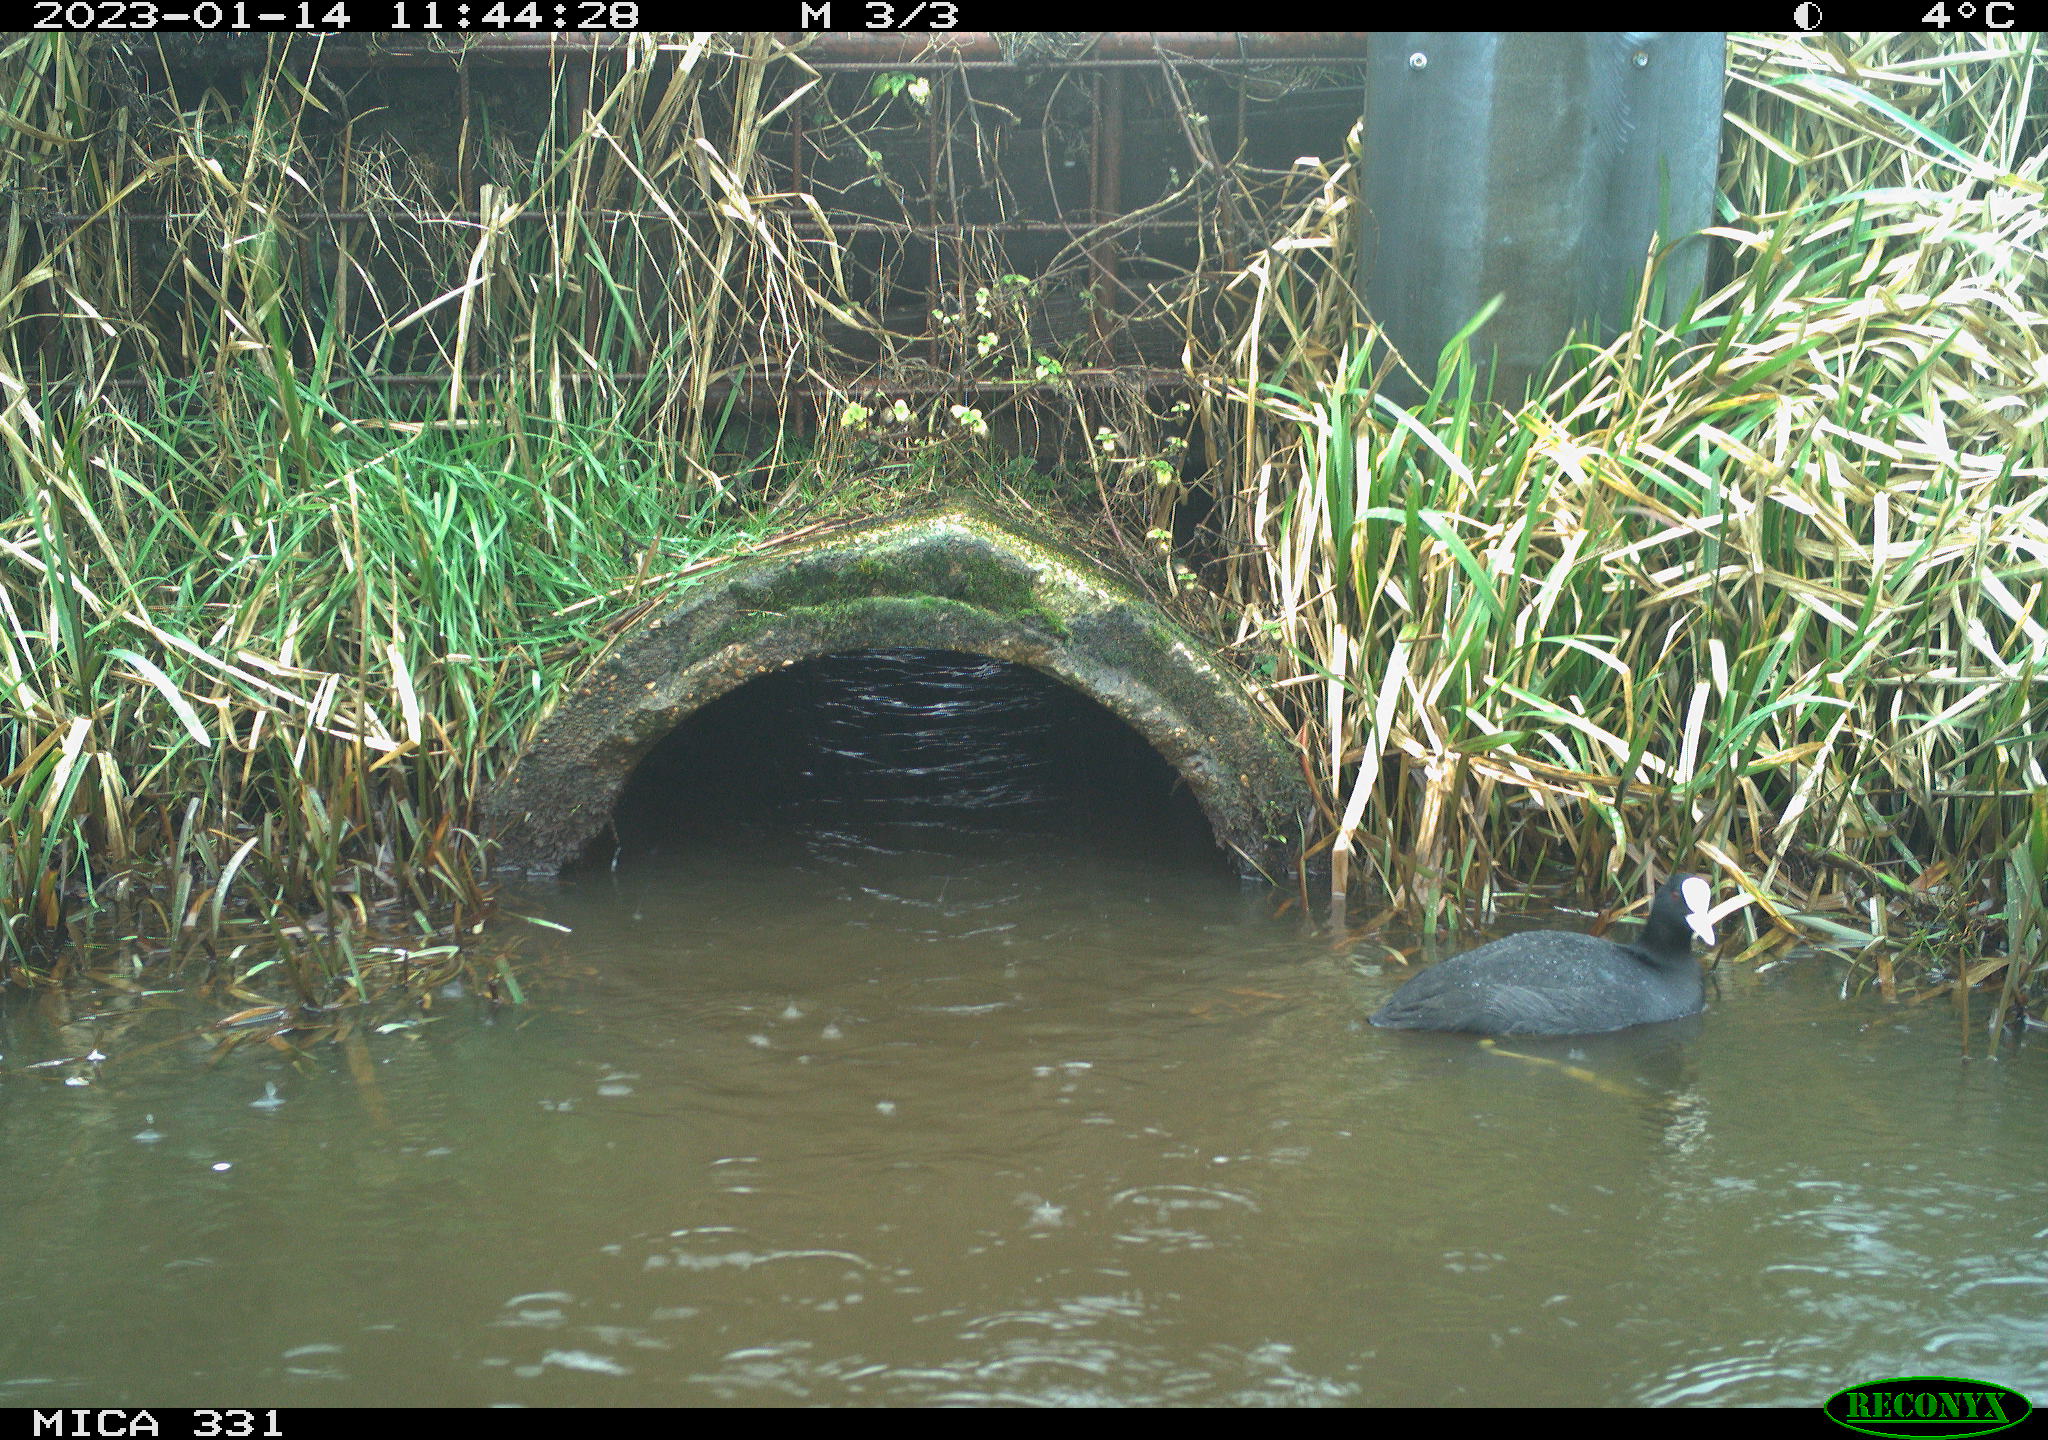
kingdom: Animalia
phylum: Chordata
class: Aves
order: Gruiformes
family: Rallidae
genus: Fulica
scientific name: Fulica atra
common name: Eurasian coot
